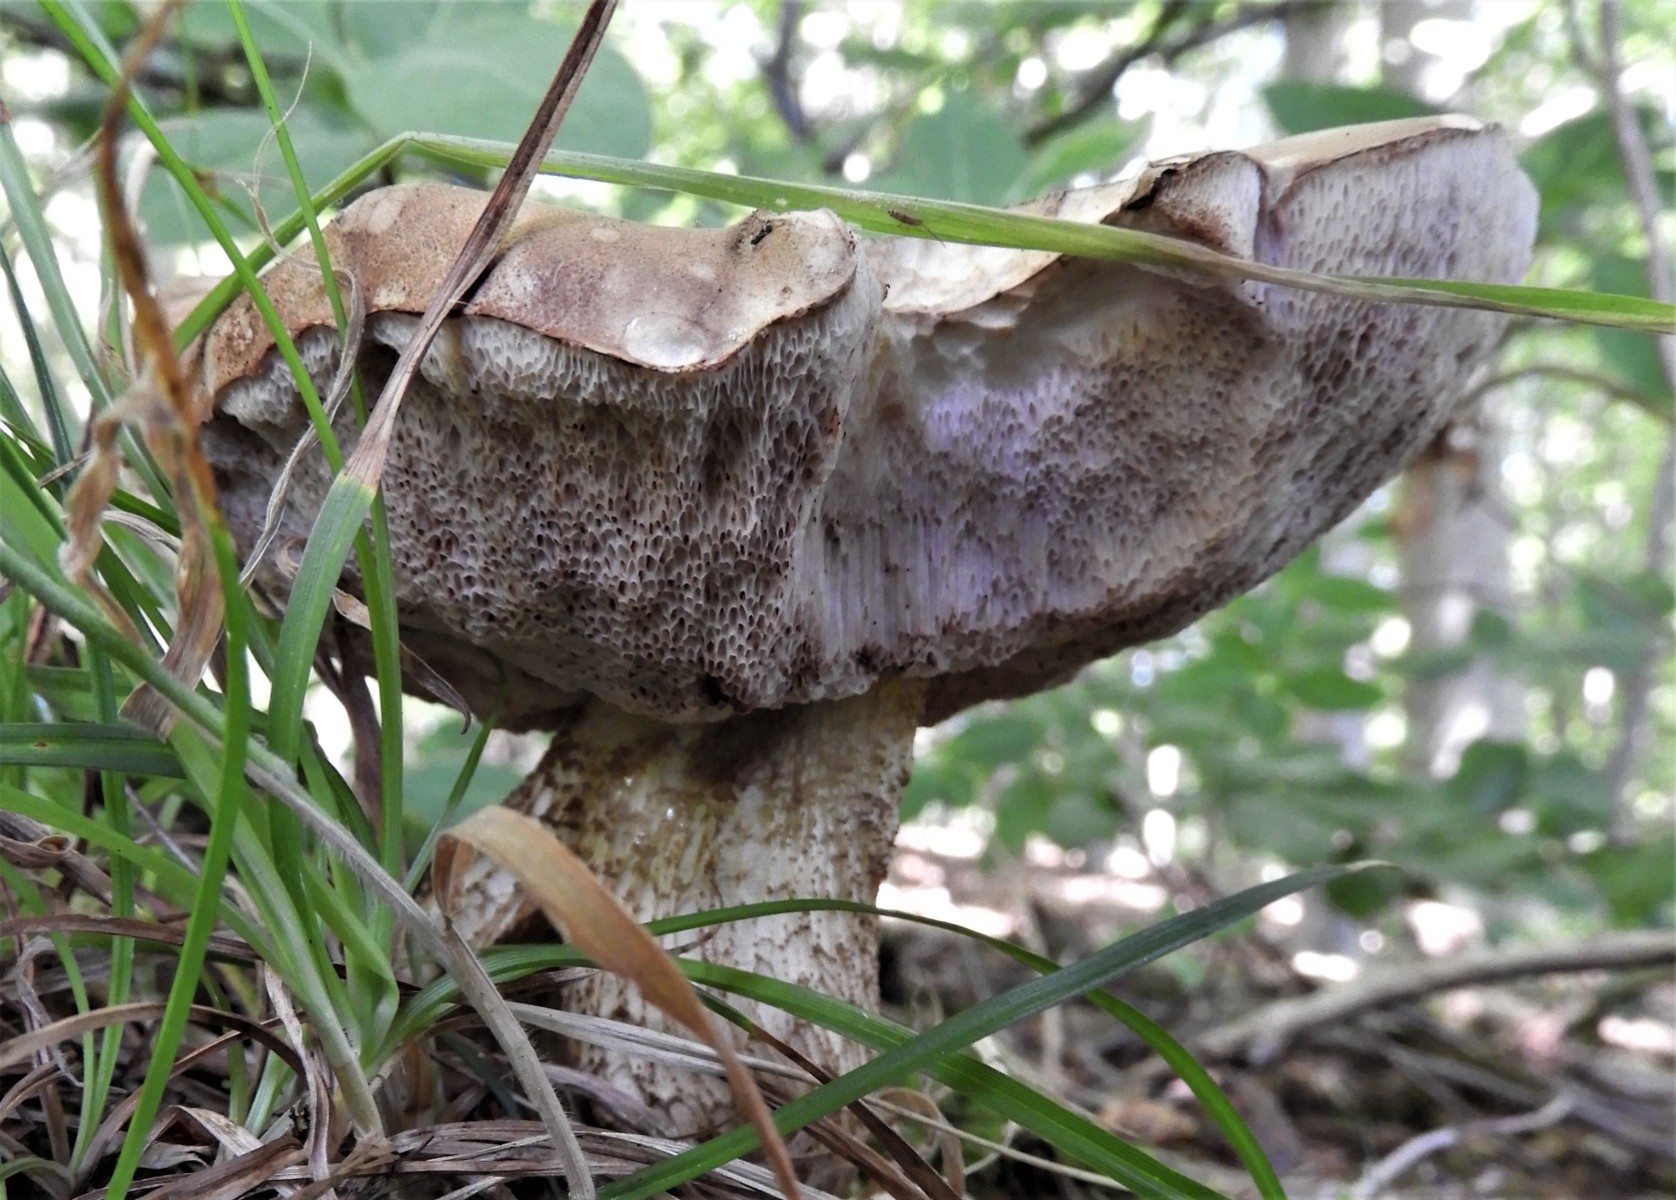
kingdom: Fungi
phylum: Basidiomycota
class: Agaricomycetes
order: Boletales
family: Boletaceae
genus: Tylopilus
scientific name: Tylopilus felleus
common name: galderørhat
